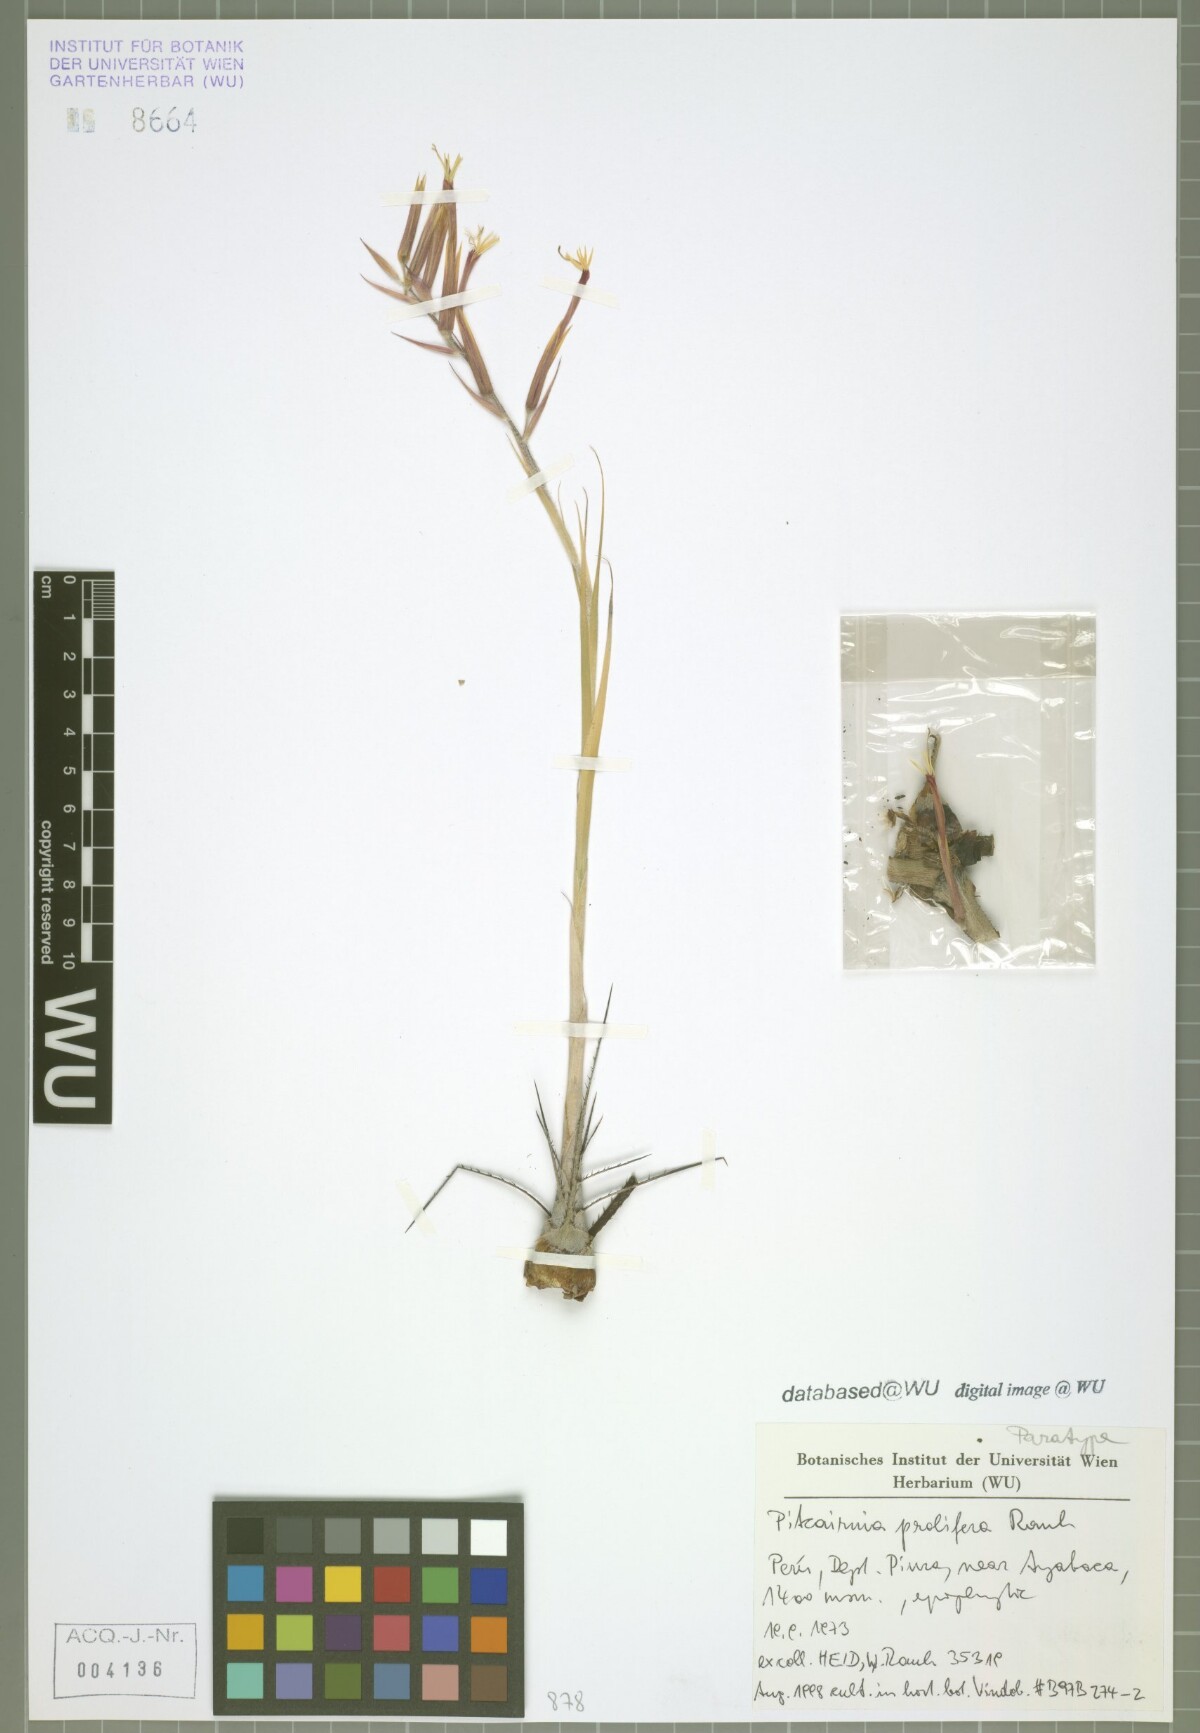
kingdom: Plantae
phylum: Tracheophyta
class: Liliopsida
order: Poales
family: Bromeliaceae
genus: Pitcairnia
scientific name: Pitcairnia prolifera
